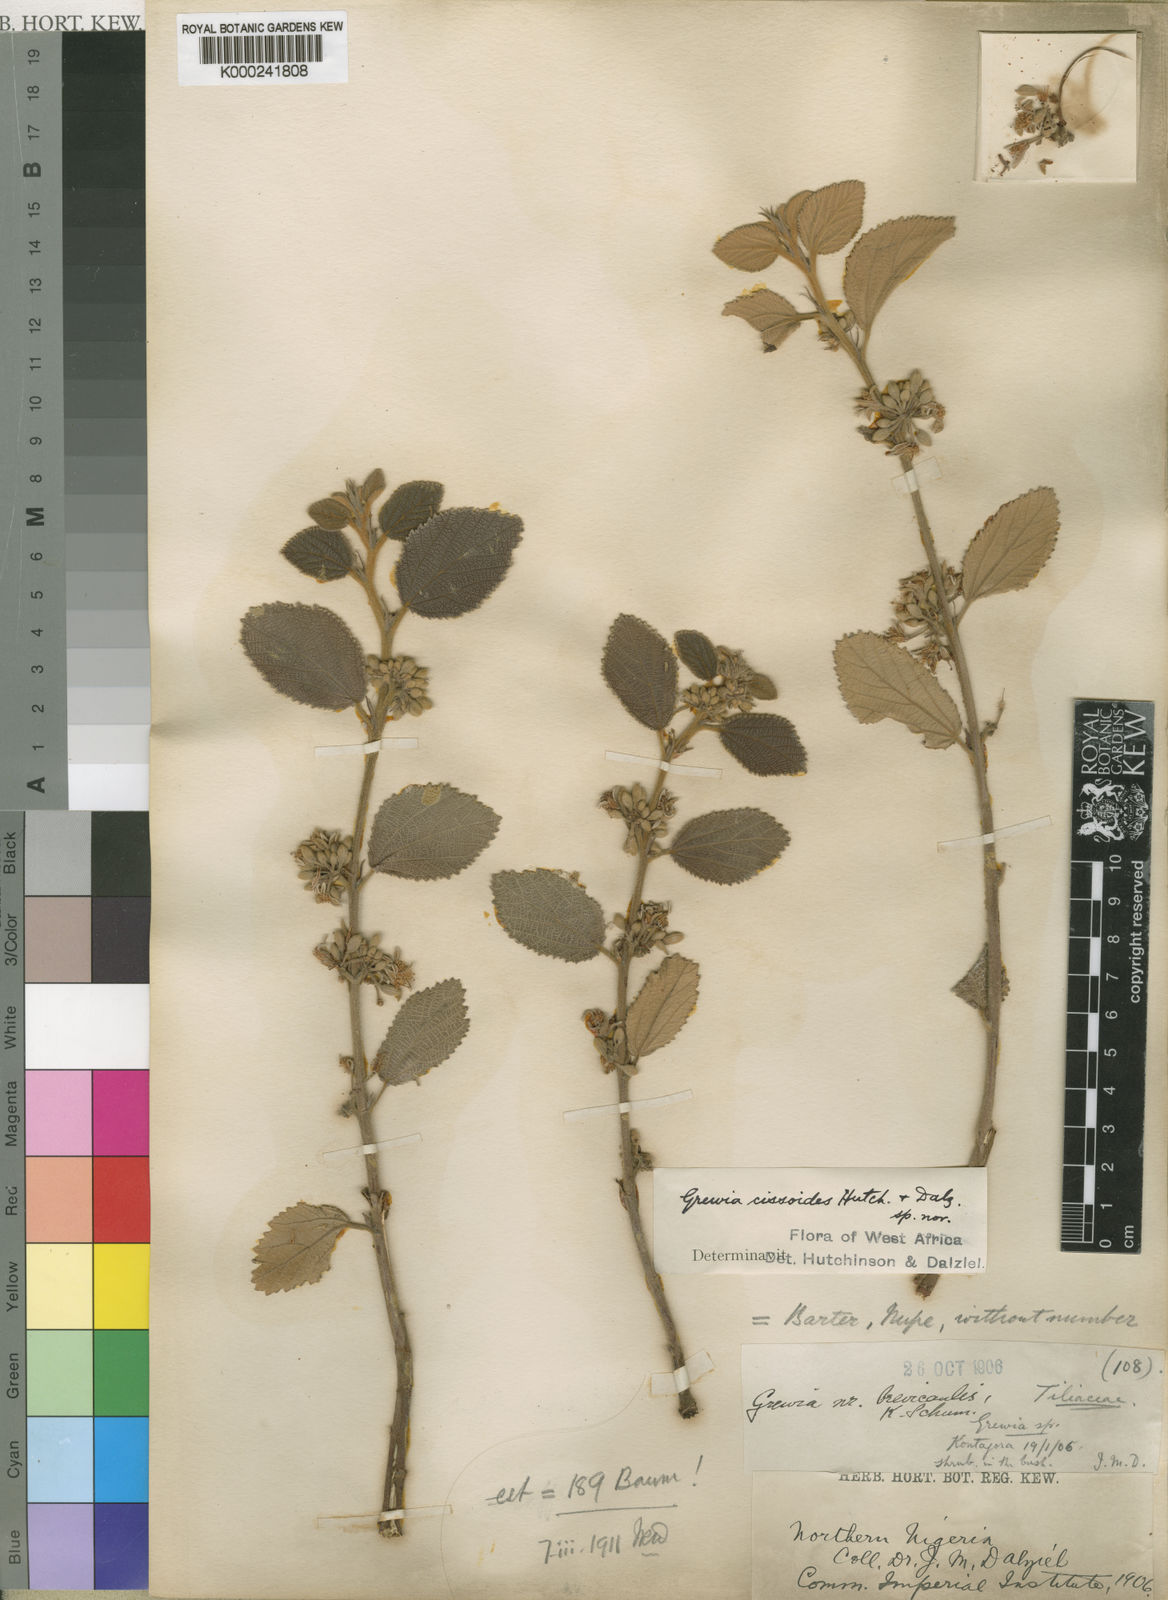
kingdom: Plantae
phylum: Tracheophyta
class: Magnoliopsida
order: Malvales
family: Malvaceae
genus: Grewia
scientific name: Grewia cissoides
